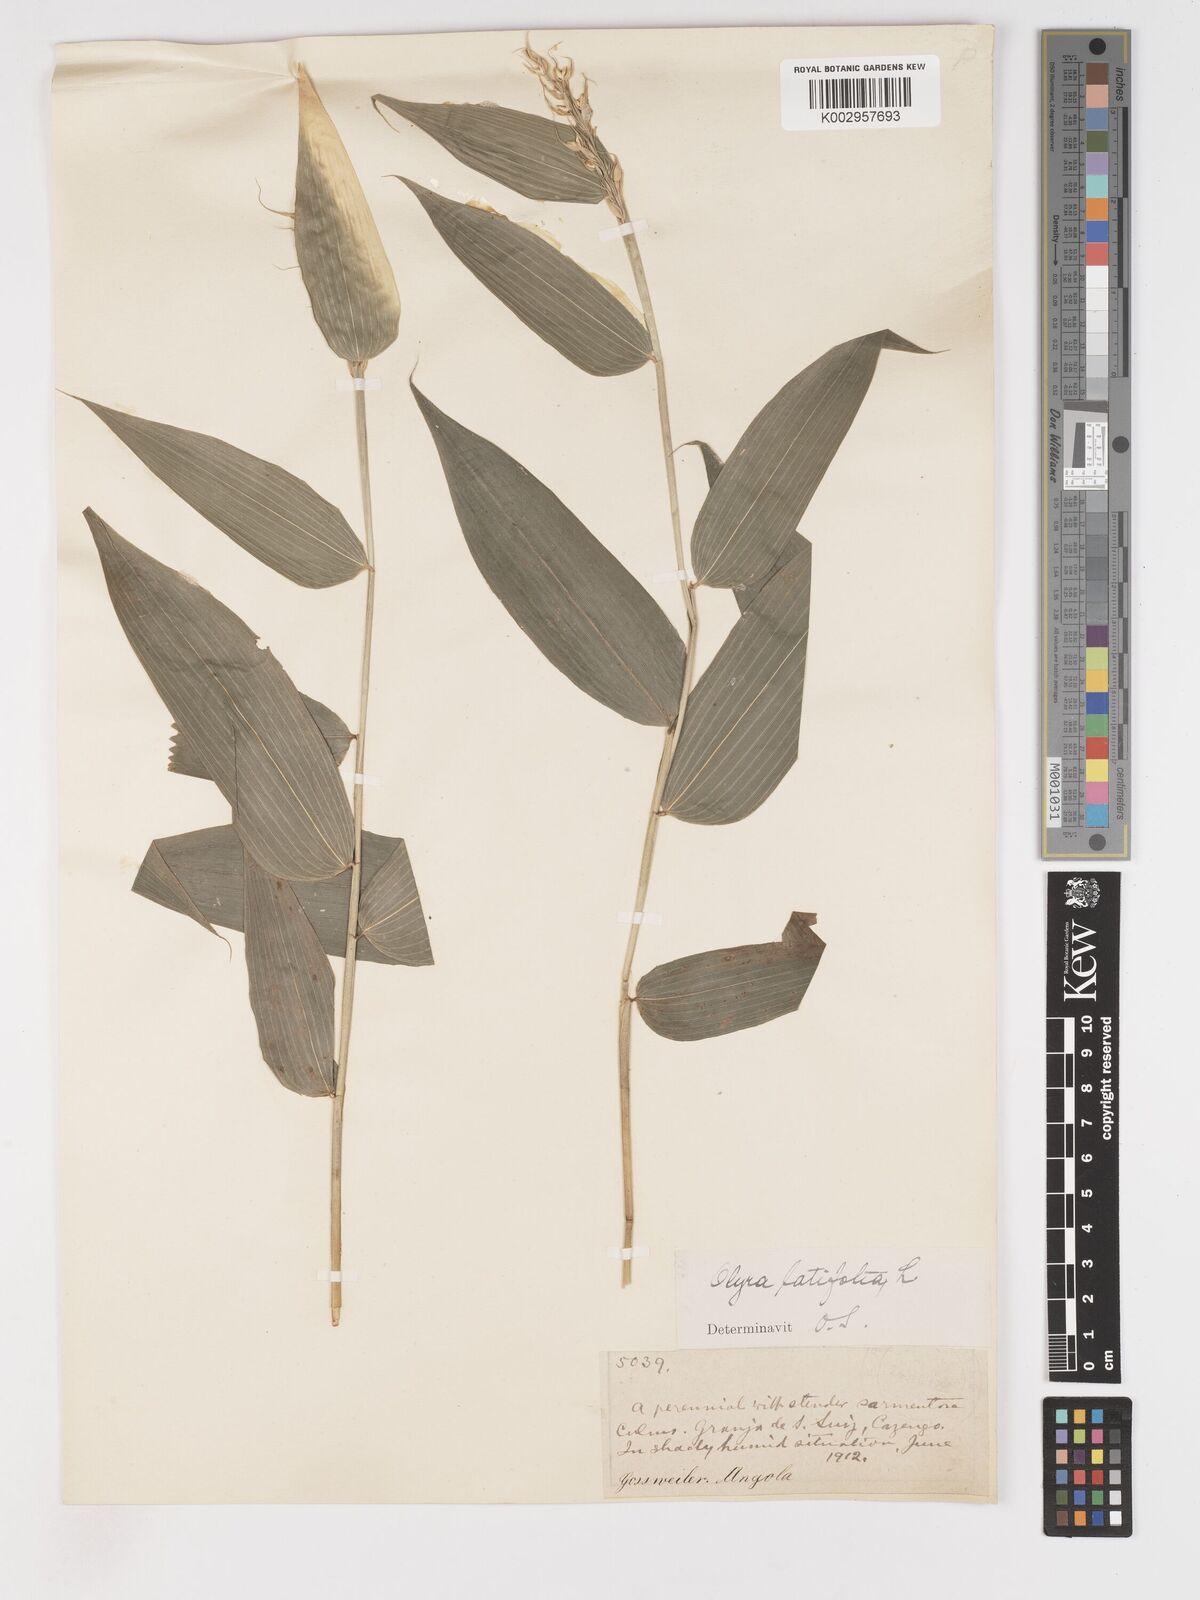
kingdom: Plantae
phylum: Tracheophyta
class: Liliopsida
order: Poales
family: Poaceae
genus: Olyra
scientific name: Olyra latifolia
